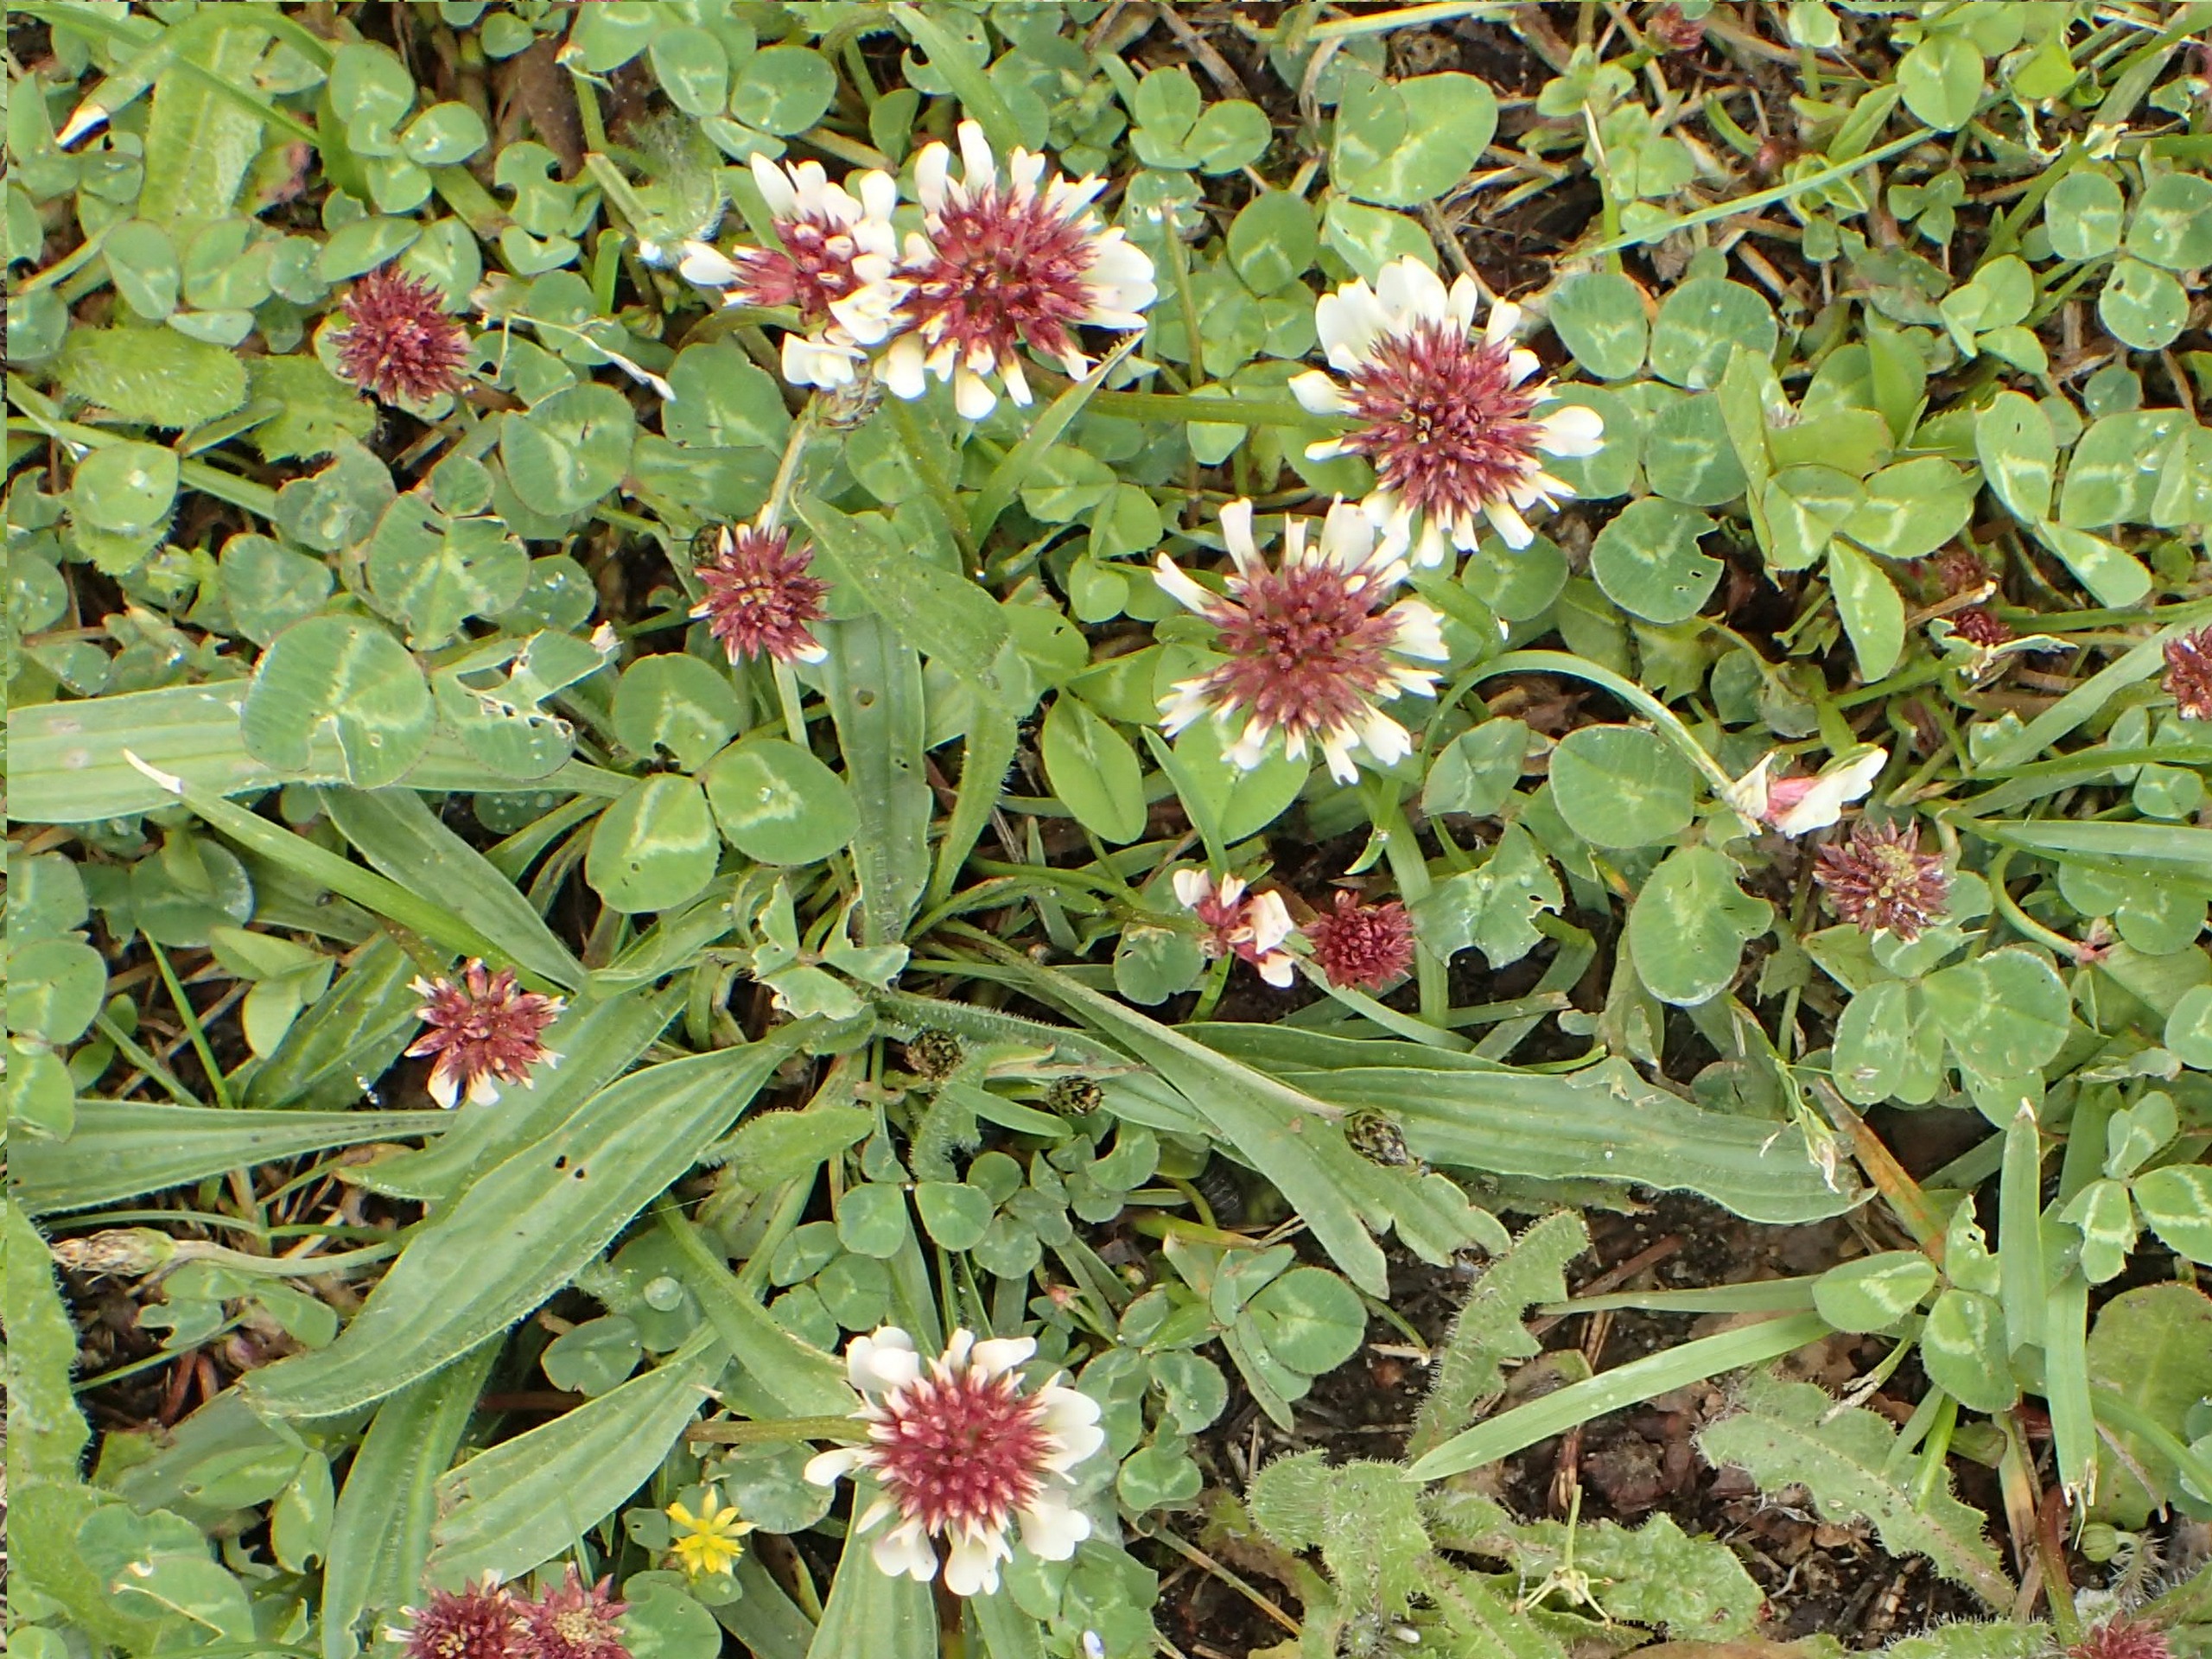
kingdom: Plantae
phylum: Tracheophyta
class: Magnoliopsida
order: Fabales
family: Fabaceae
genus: Trifolium
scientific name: Trifolium repens
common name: Hvid-kløver
